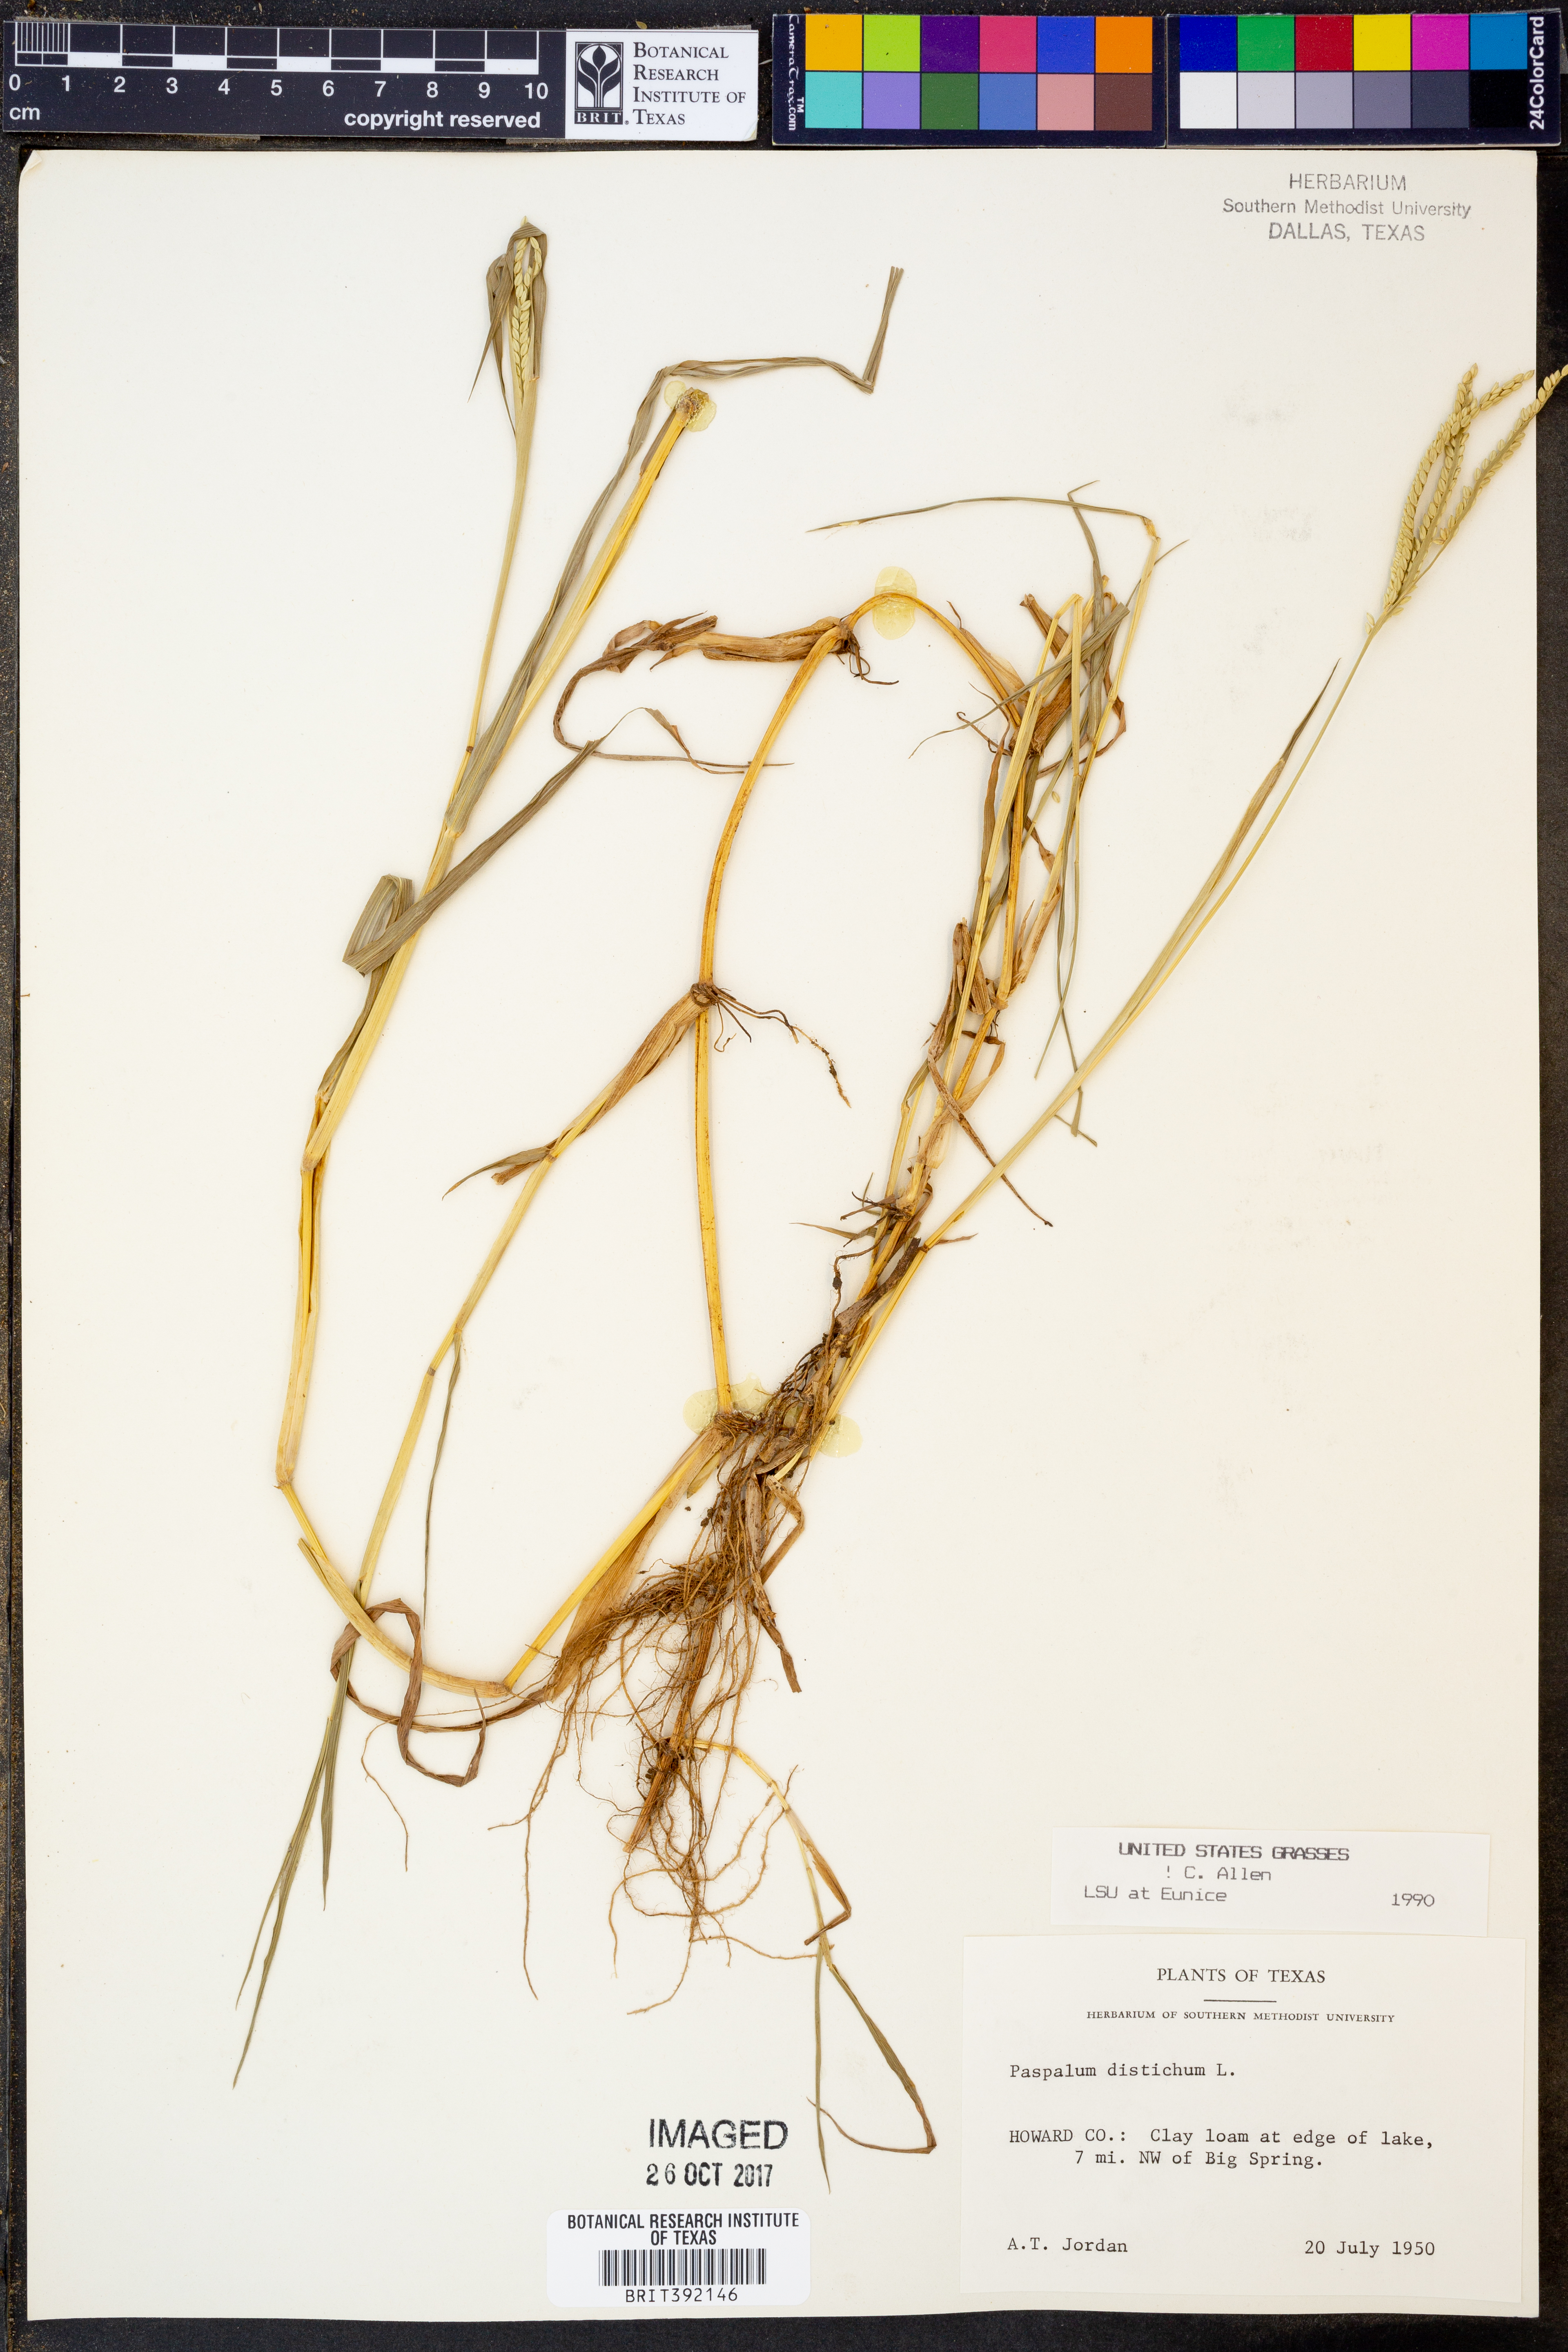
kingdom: Plantae
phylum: Tracheophyta
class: Liliopsida
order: Poales
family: Poaceae
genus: Paspalum
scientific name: Paspalum distichum
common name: Knotgrass
